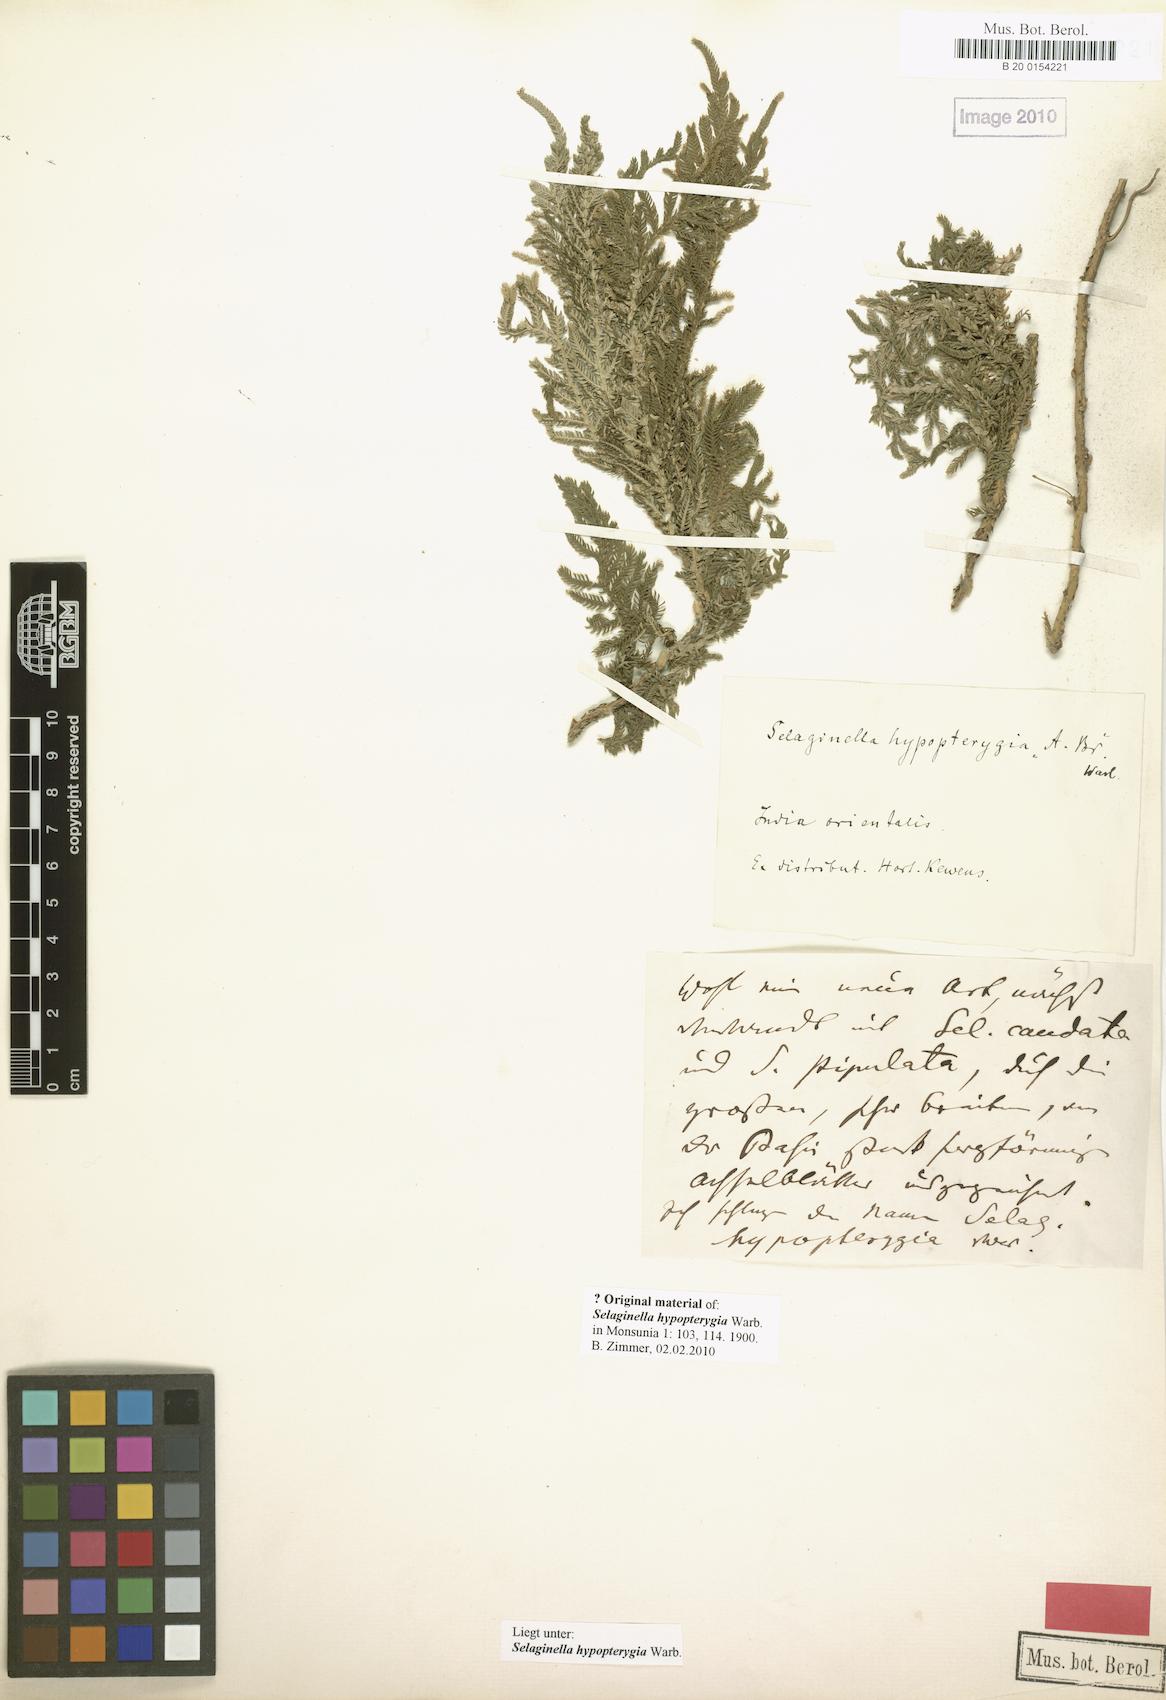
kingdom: Plantae
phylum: Tracheophyta
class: Lycopodiopsida
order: Selaginellales
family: Selaginellaceae
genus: Selaginella
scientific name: Selaginella picta
